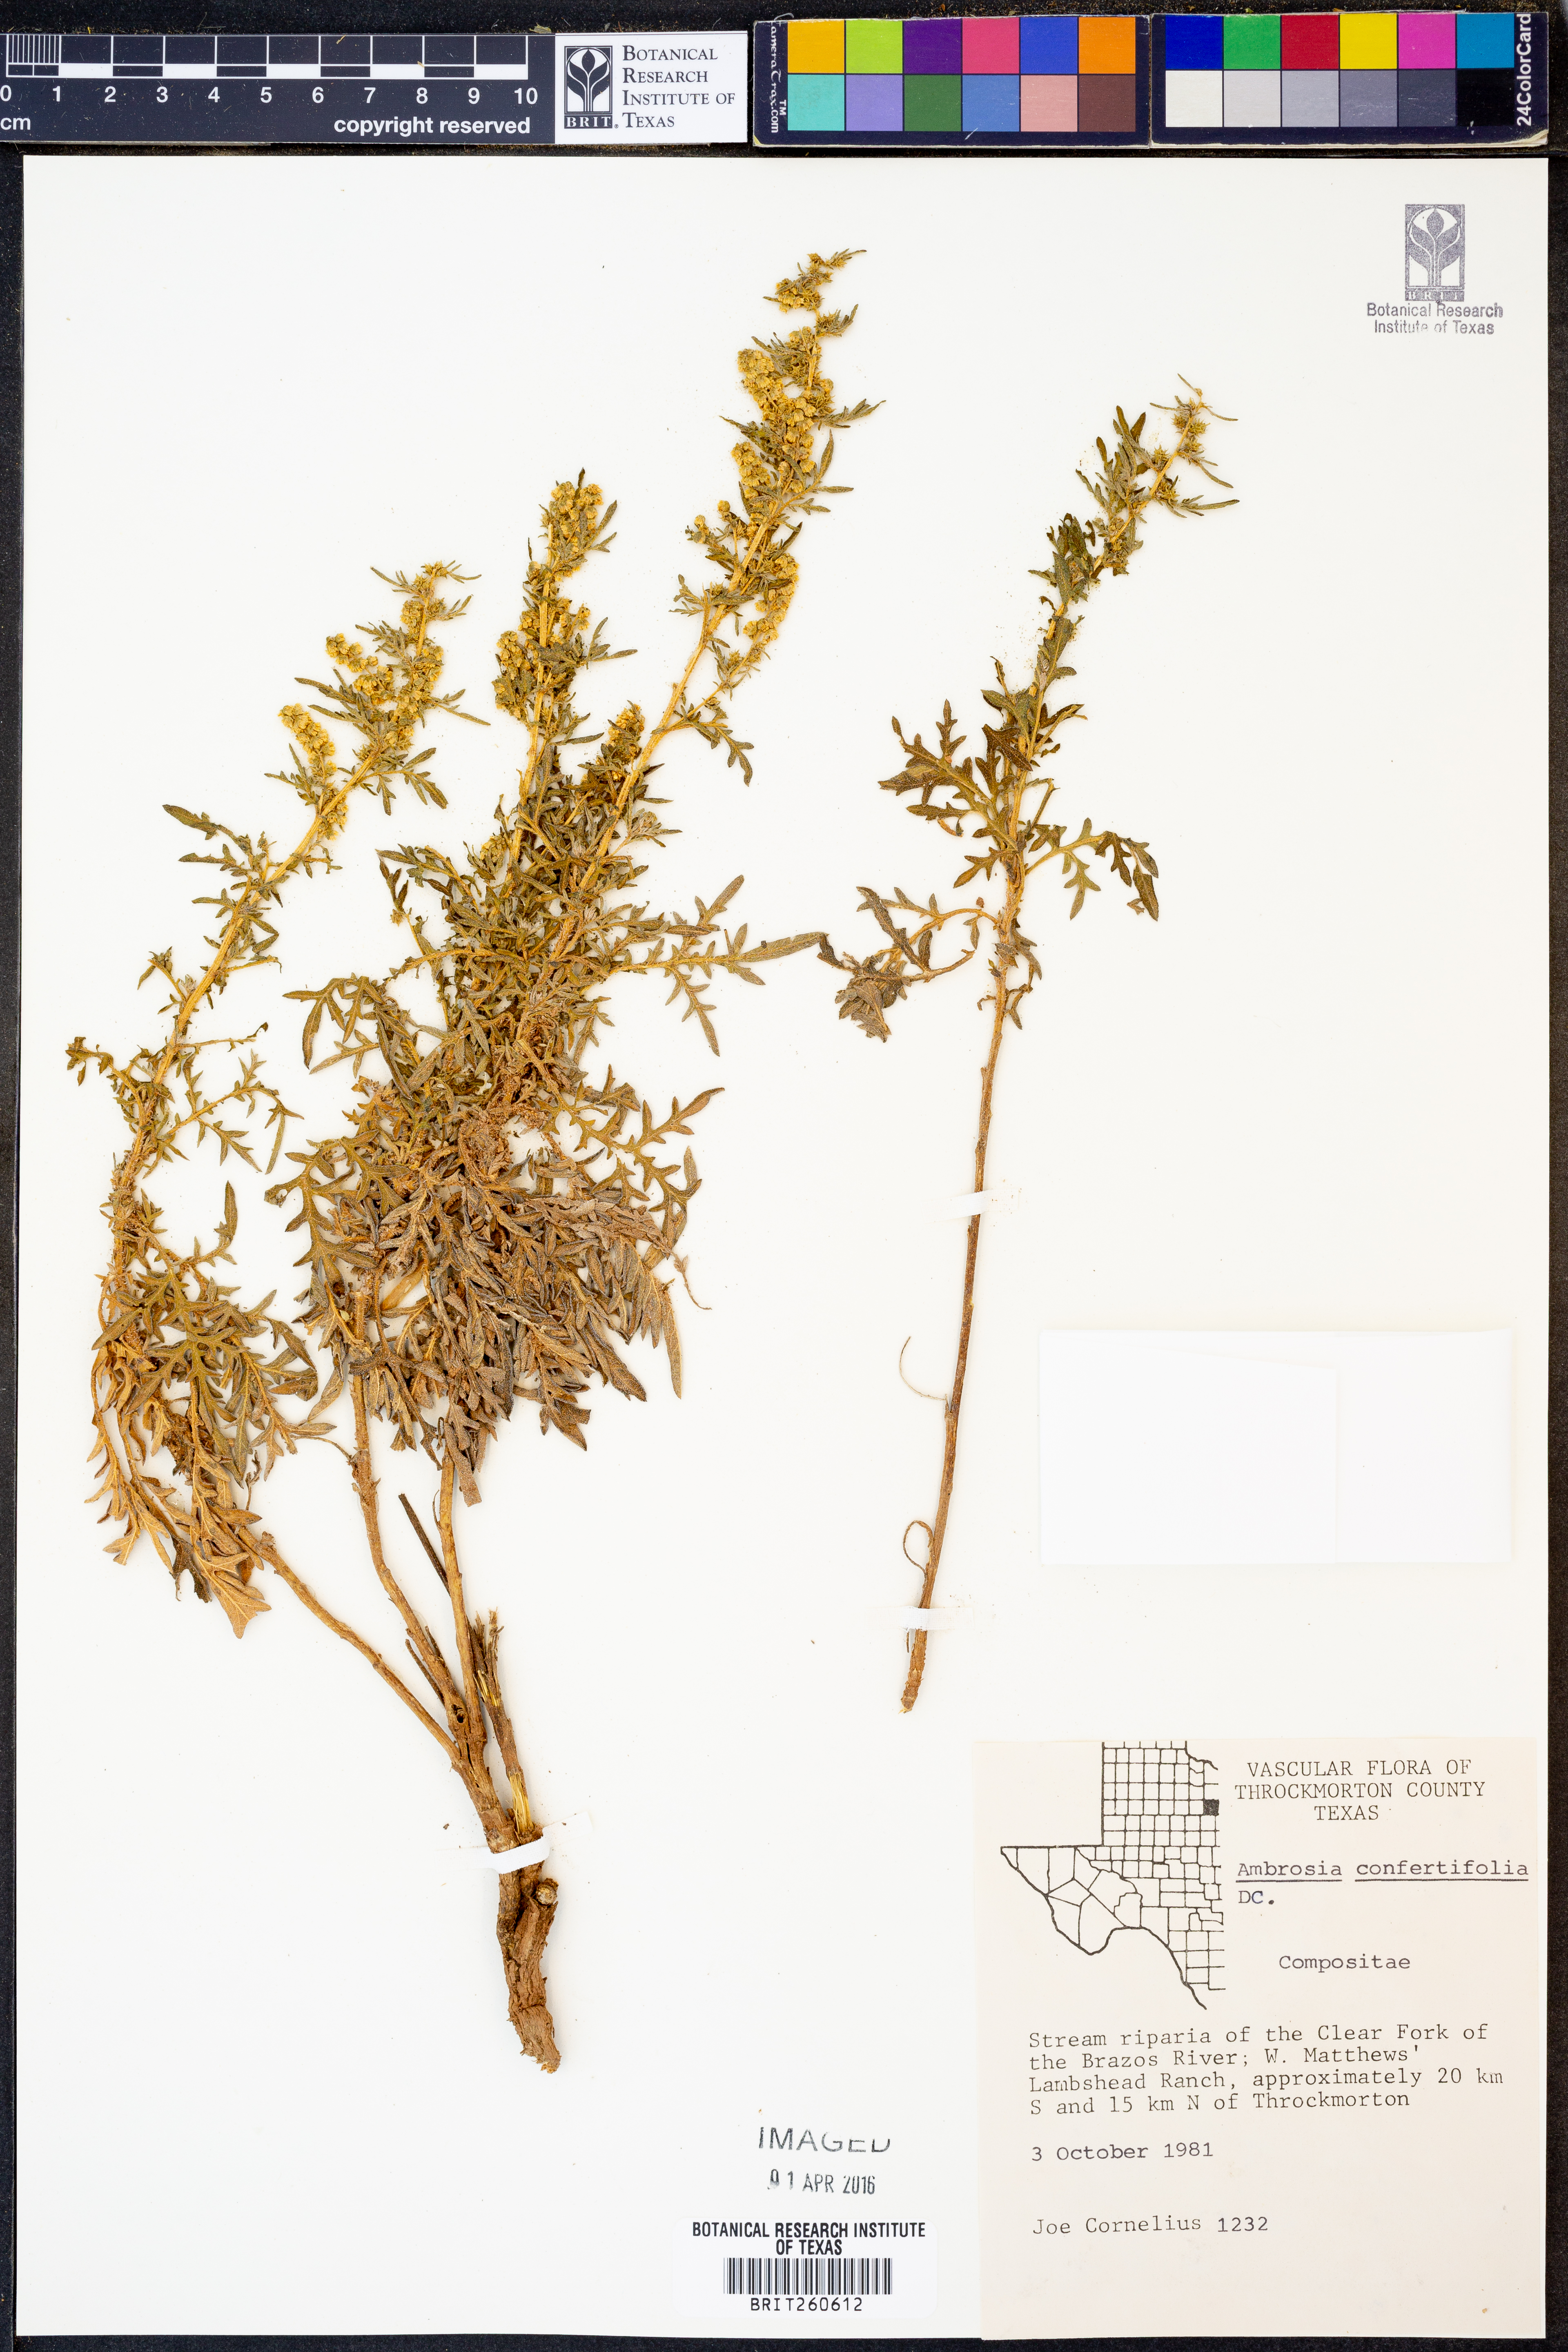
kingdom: Plantae
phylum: Tracheophyta
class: Magnoliopsida
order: Asterales
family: Asteraceae
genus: Ambrosia
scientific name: Ambrosia confertiflora
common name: Bur ragweed
